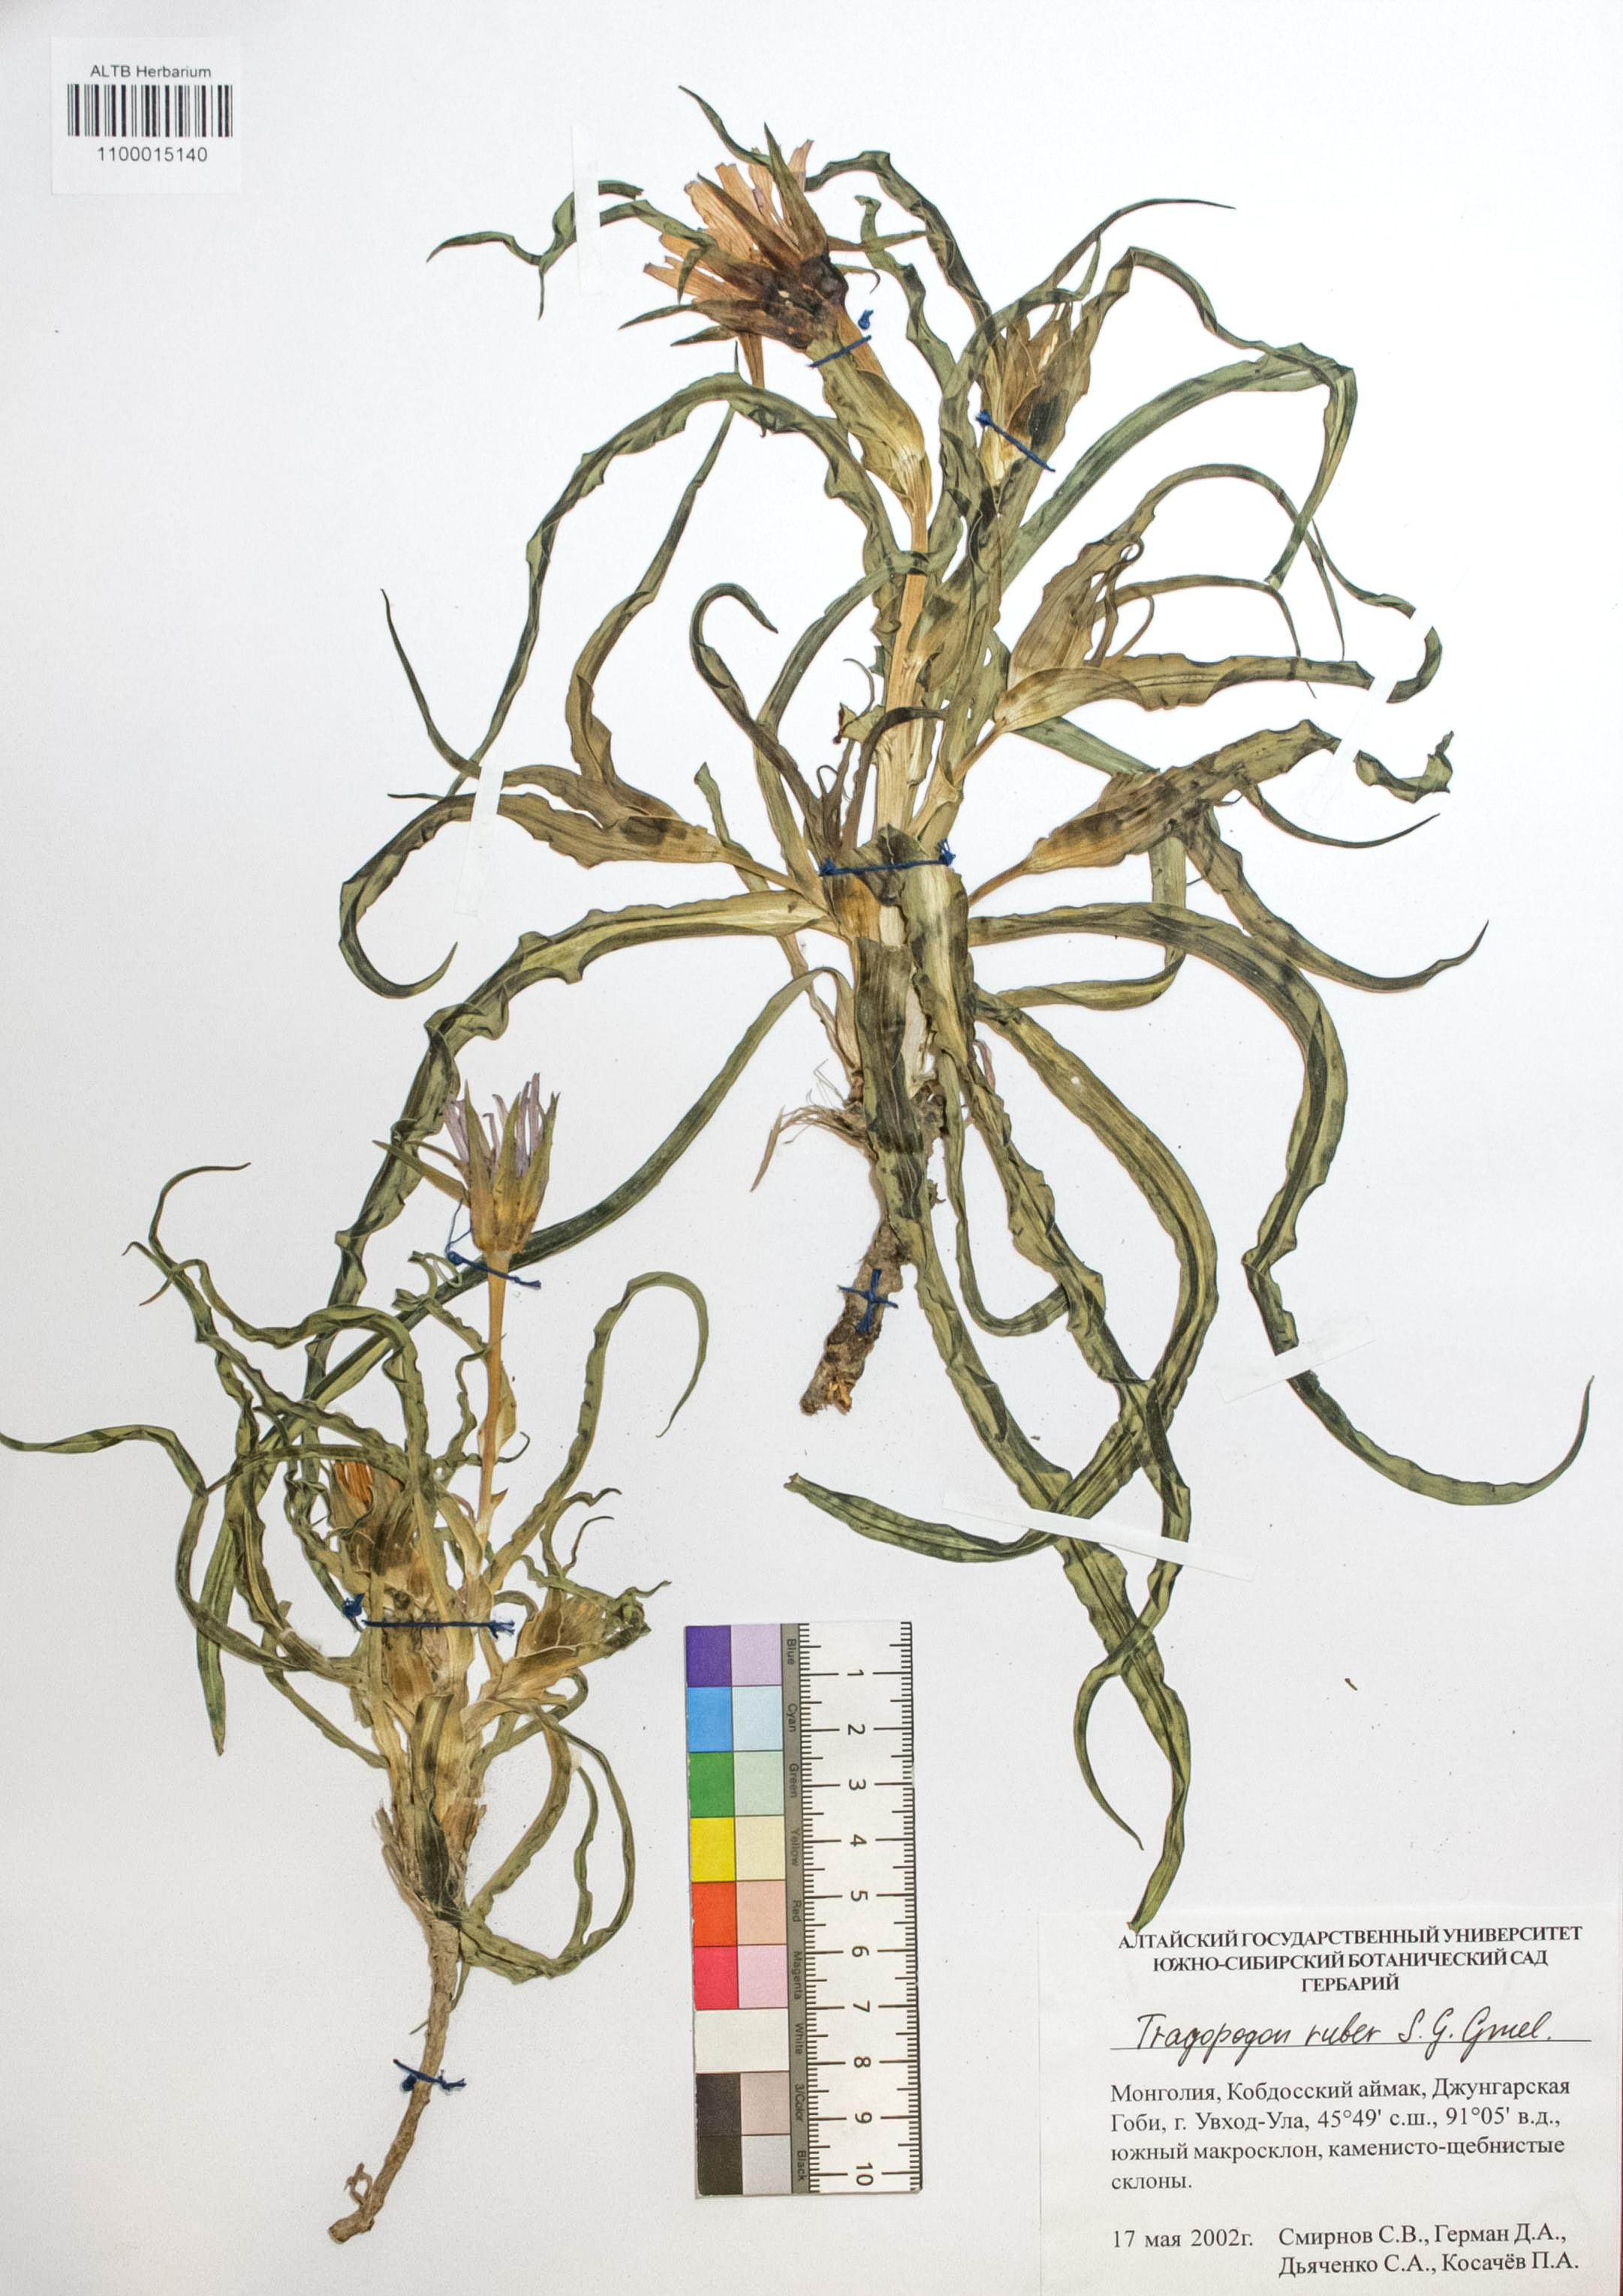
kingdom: Plantae
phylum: Tracheophyta
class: Magnoliopsida
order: Asterales
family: Asteraceae
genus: Tragopogon
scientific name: Tragopogon ruber
